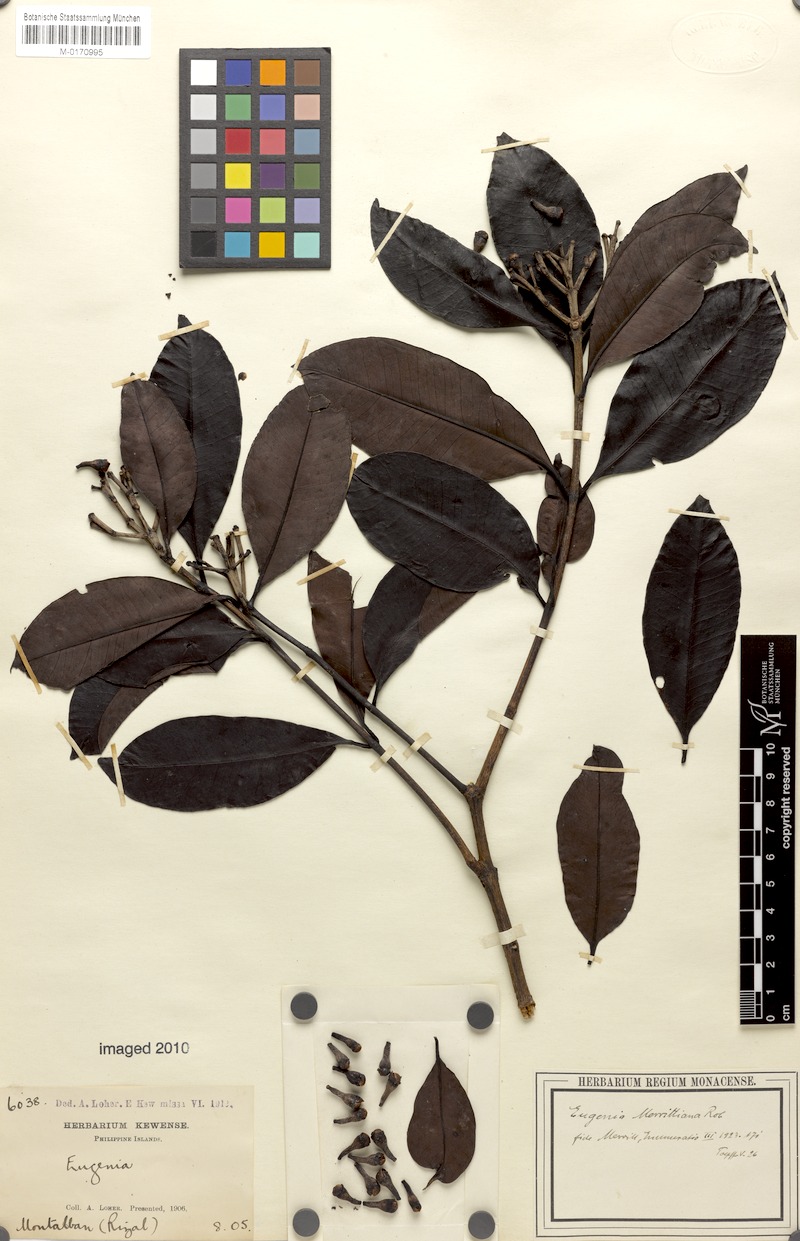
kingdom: Plantae
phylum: Tracheophyta
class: Magnoliopsida
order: Myrtales
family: Myrtaceae
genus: Syzygium
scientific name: Syzygium merrittianum
